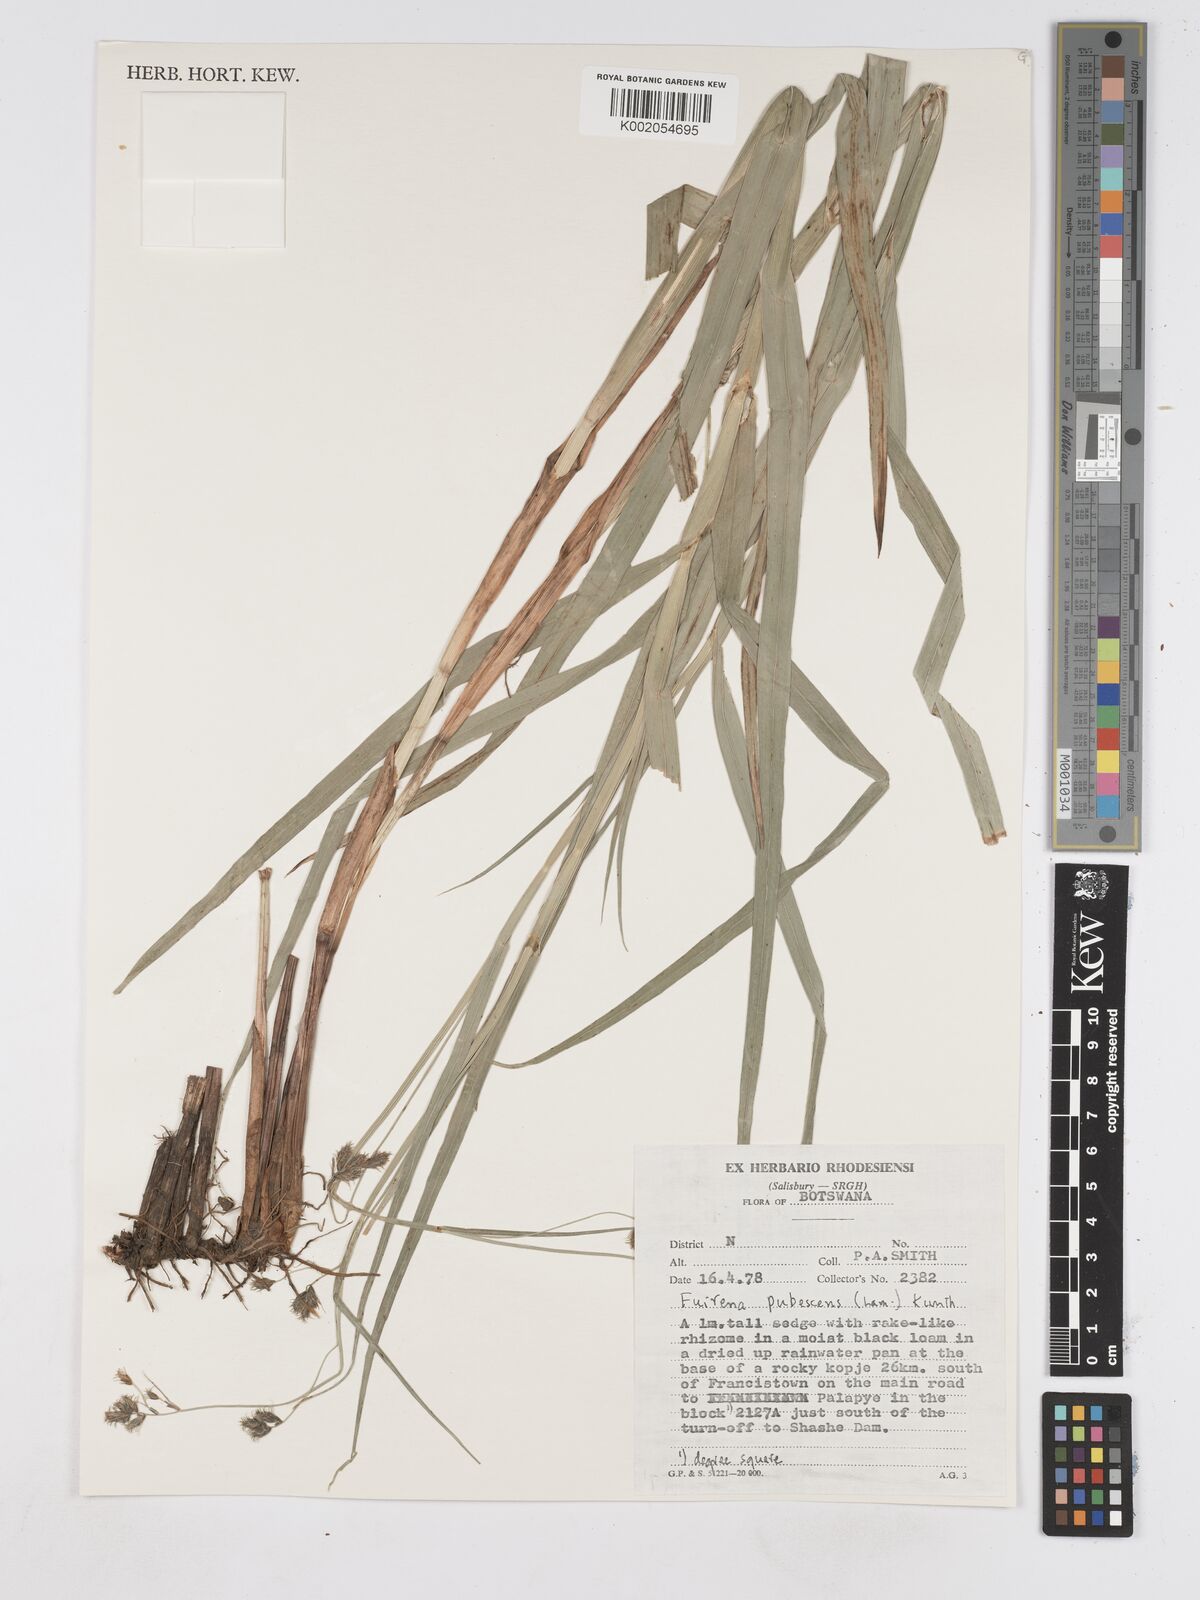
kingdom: Plantae
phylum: Tracheophyta
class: Liliopsida
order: Poales
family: Cyperaceae
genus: Fuirena
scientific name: Fuirena pachyrrhiza
